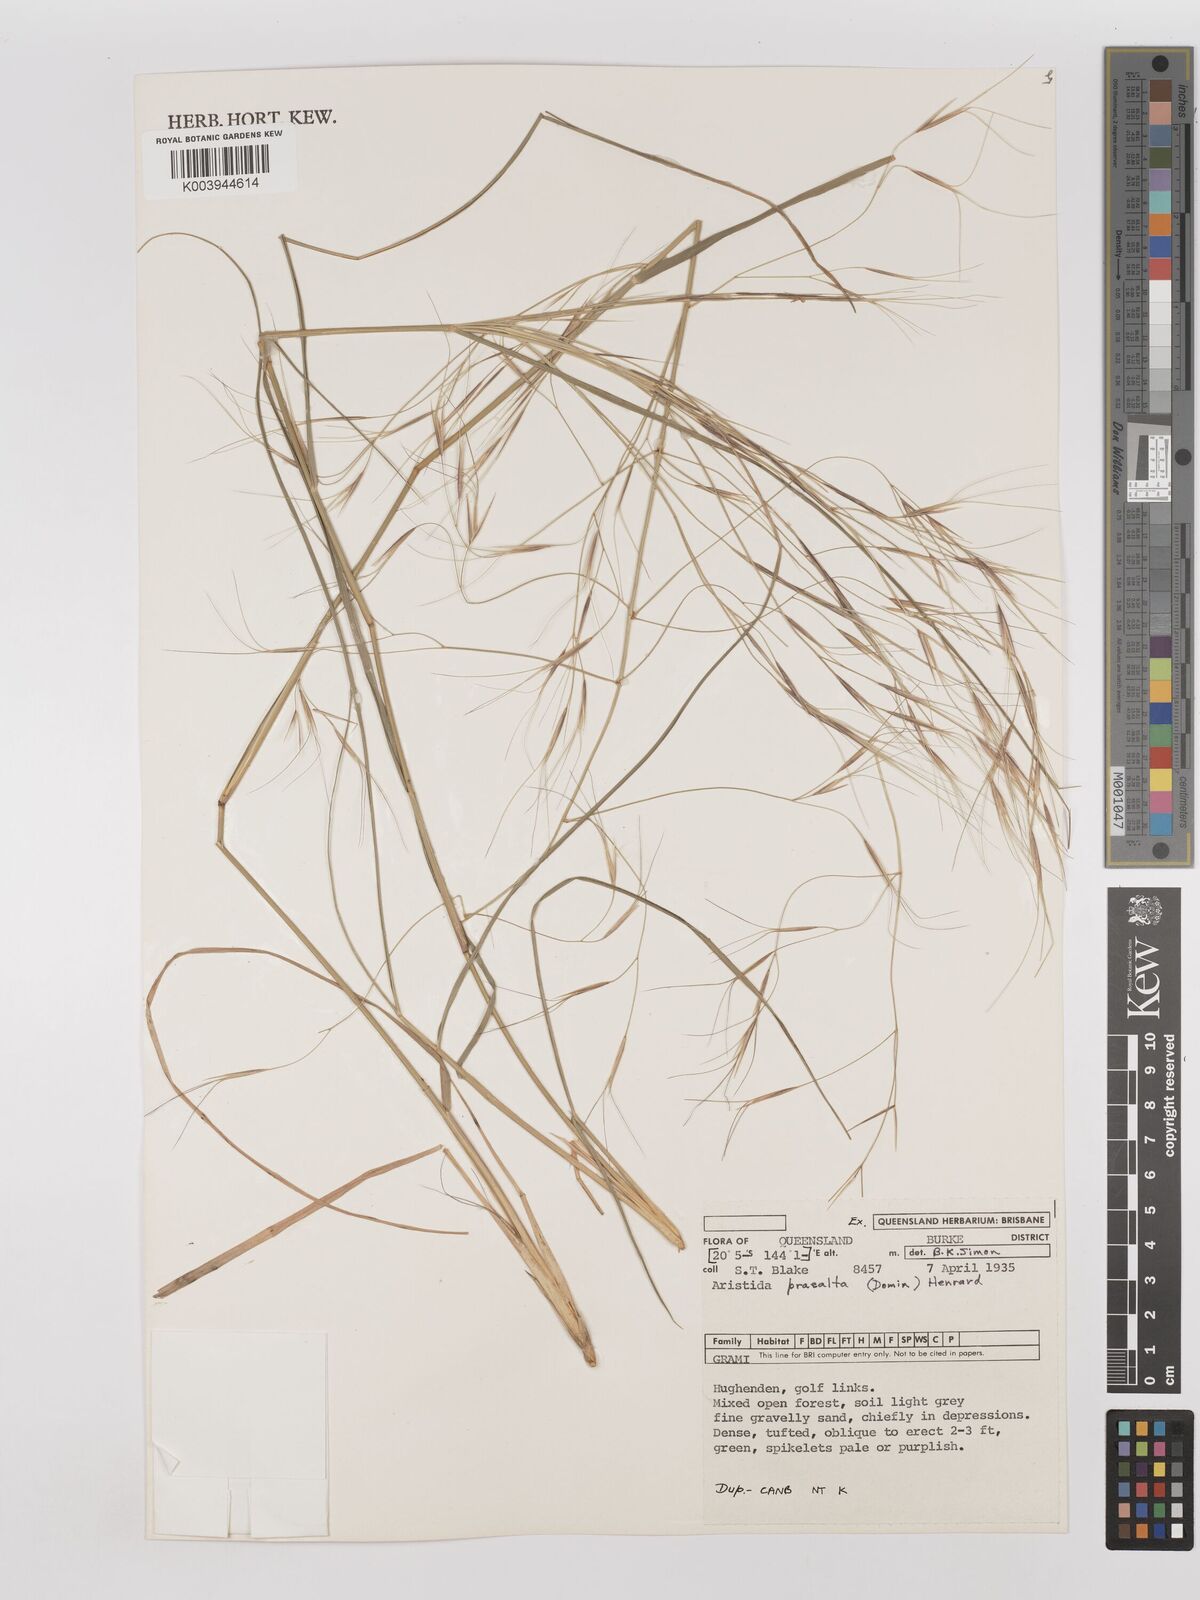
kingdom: Plantae
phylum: Tracheophyta
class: Liliopsida
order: Poales
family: Poaceae
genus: Aristida
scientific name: Aristida calycina
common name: Dark wire grass
